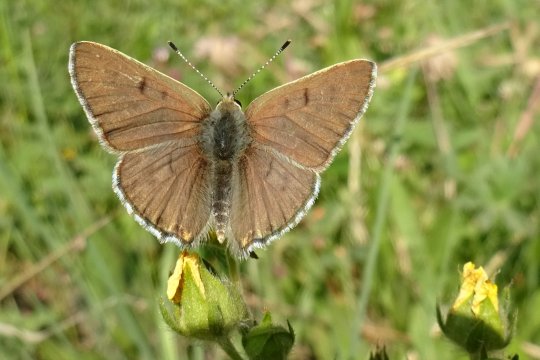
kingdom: Animalia
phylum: Arthropoda
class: Insecta
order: Lepidoptera
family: Lycaenidae
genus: Lycaena
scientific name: Lycaena editha
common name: Edith's Copper
